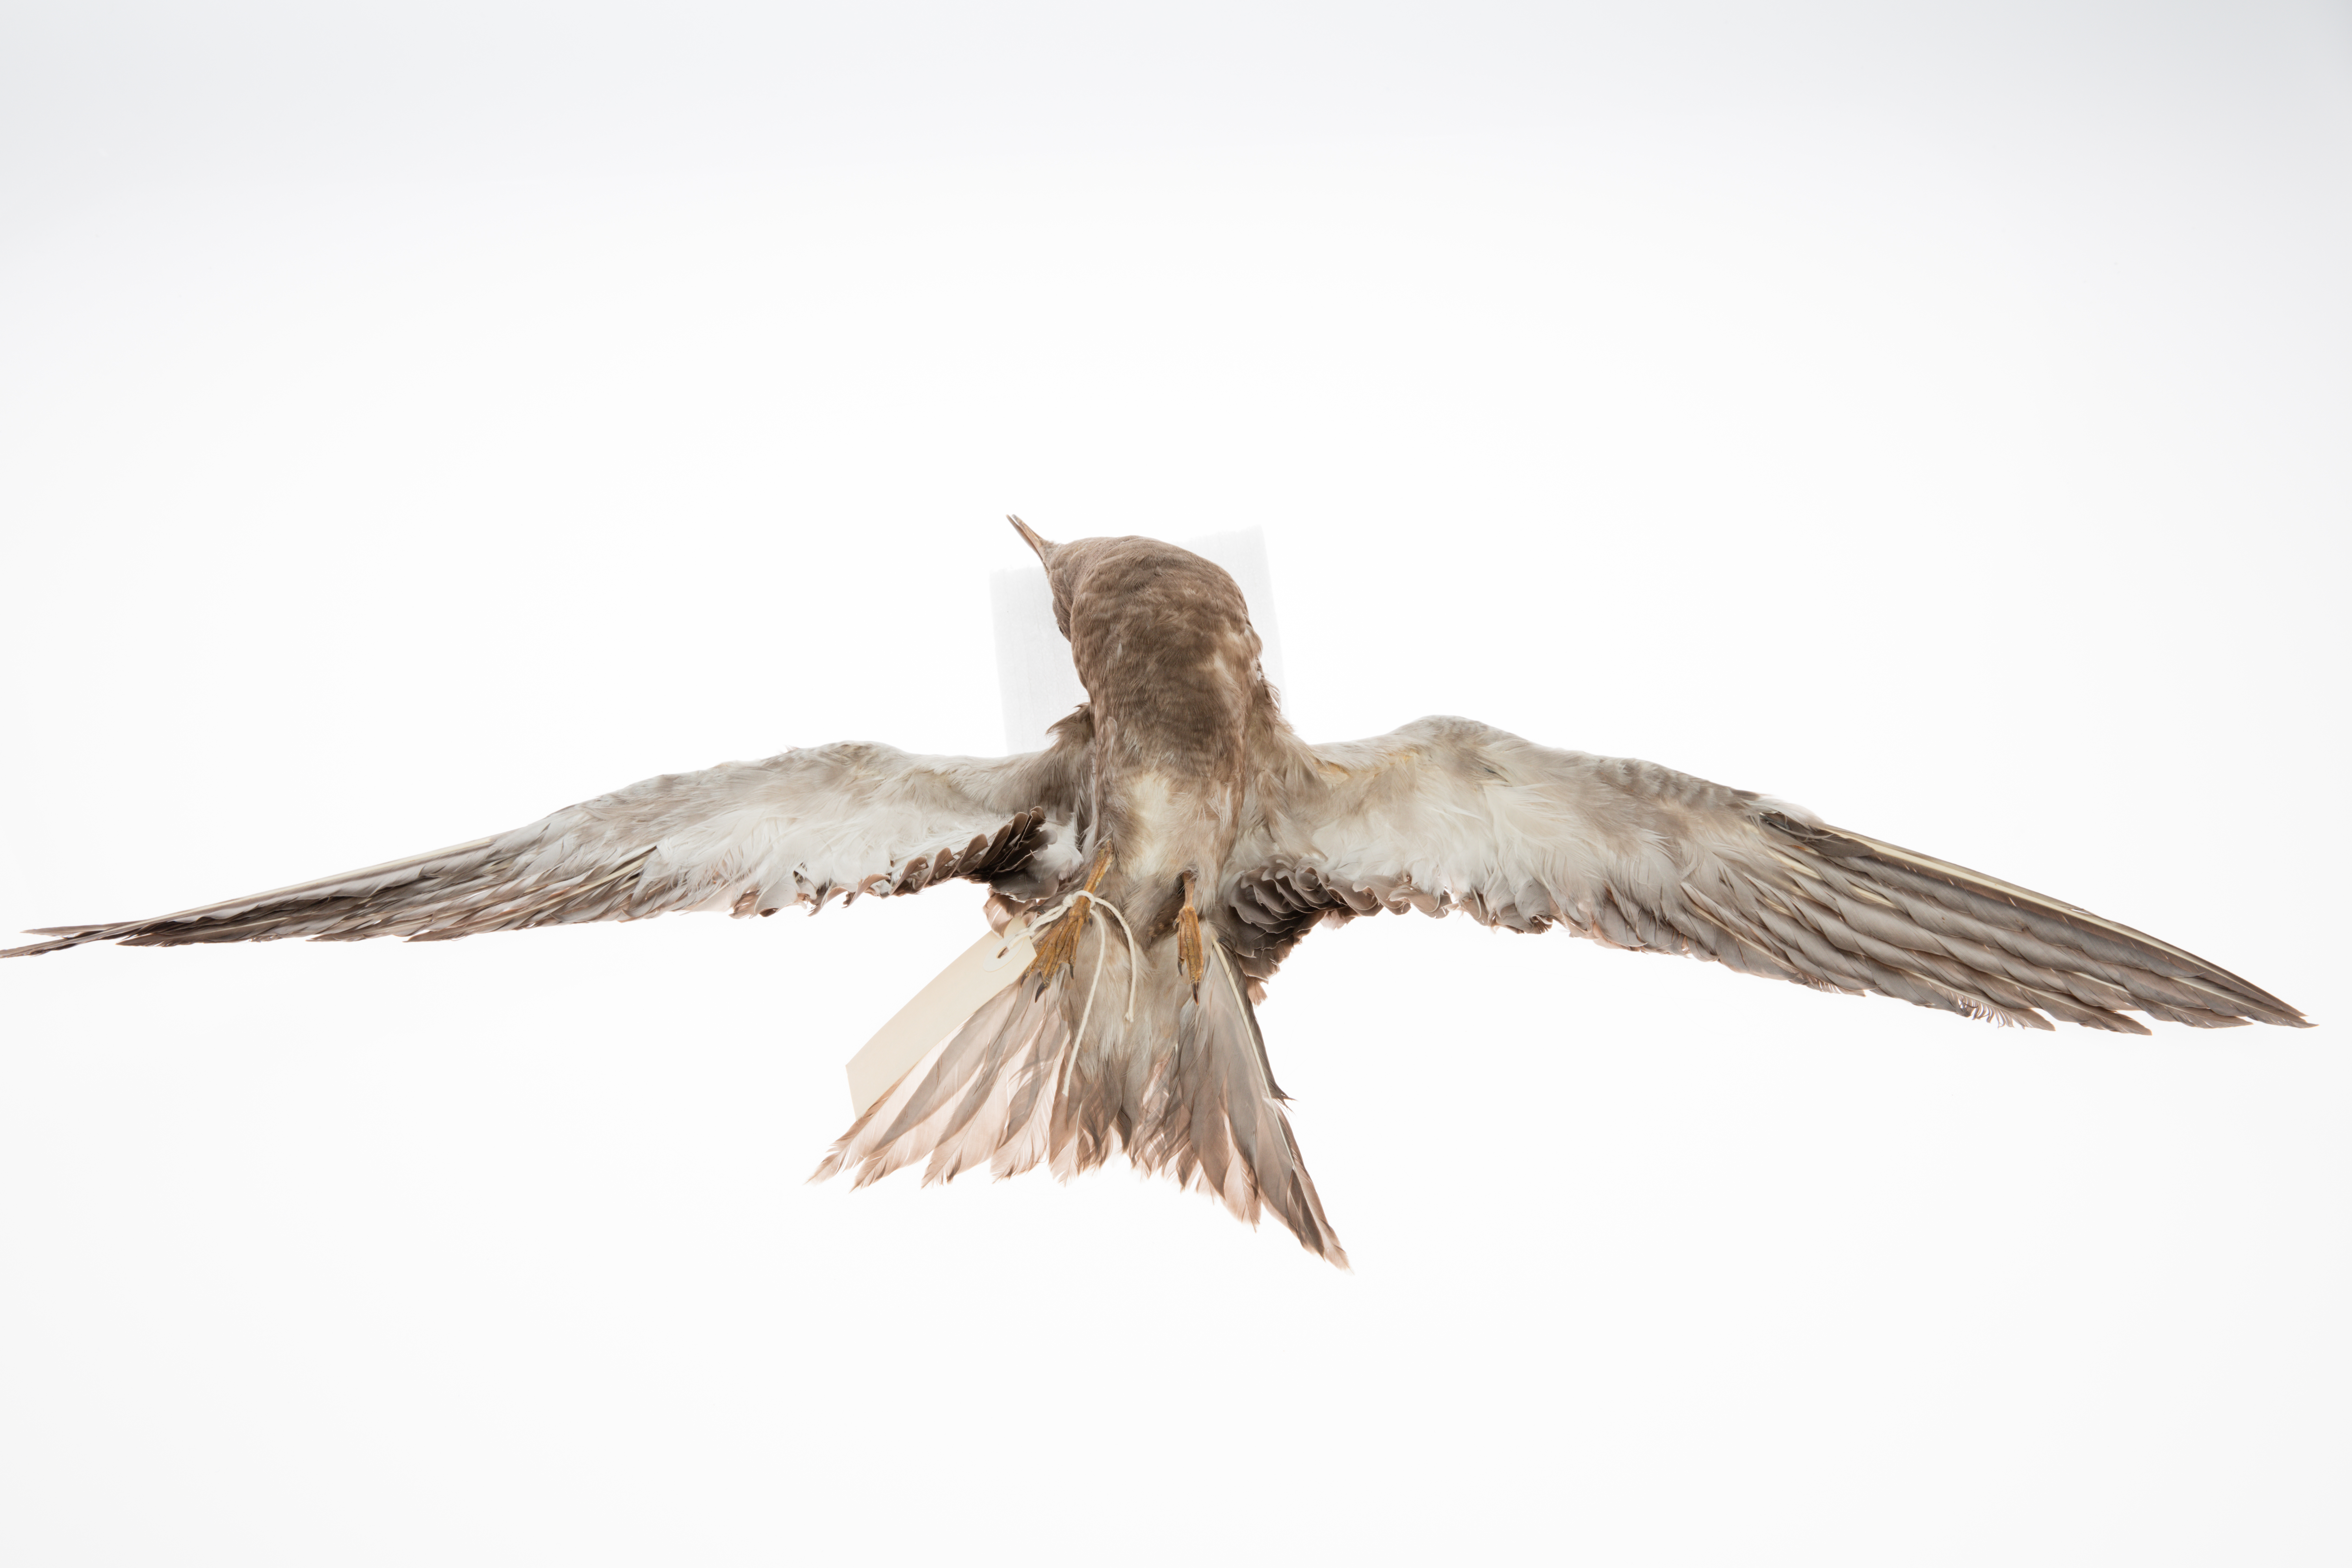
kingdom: Animalia
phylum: Chordata
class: Aves
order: Charadriiformes
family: Laridae
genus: Onychoprion
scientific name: Onychoprion fuscatus
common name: Sooty tern
